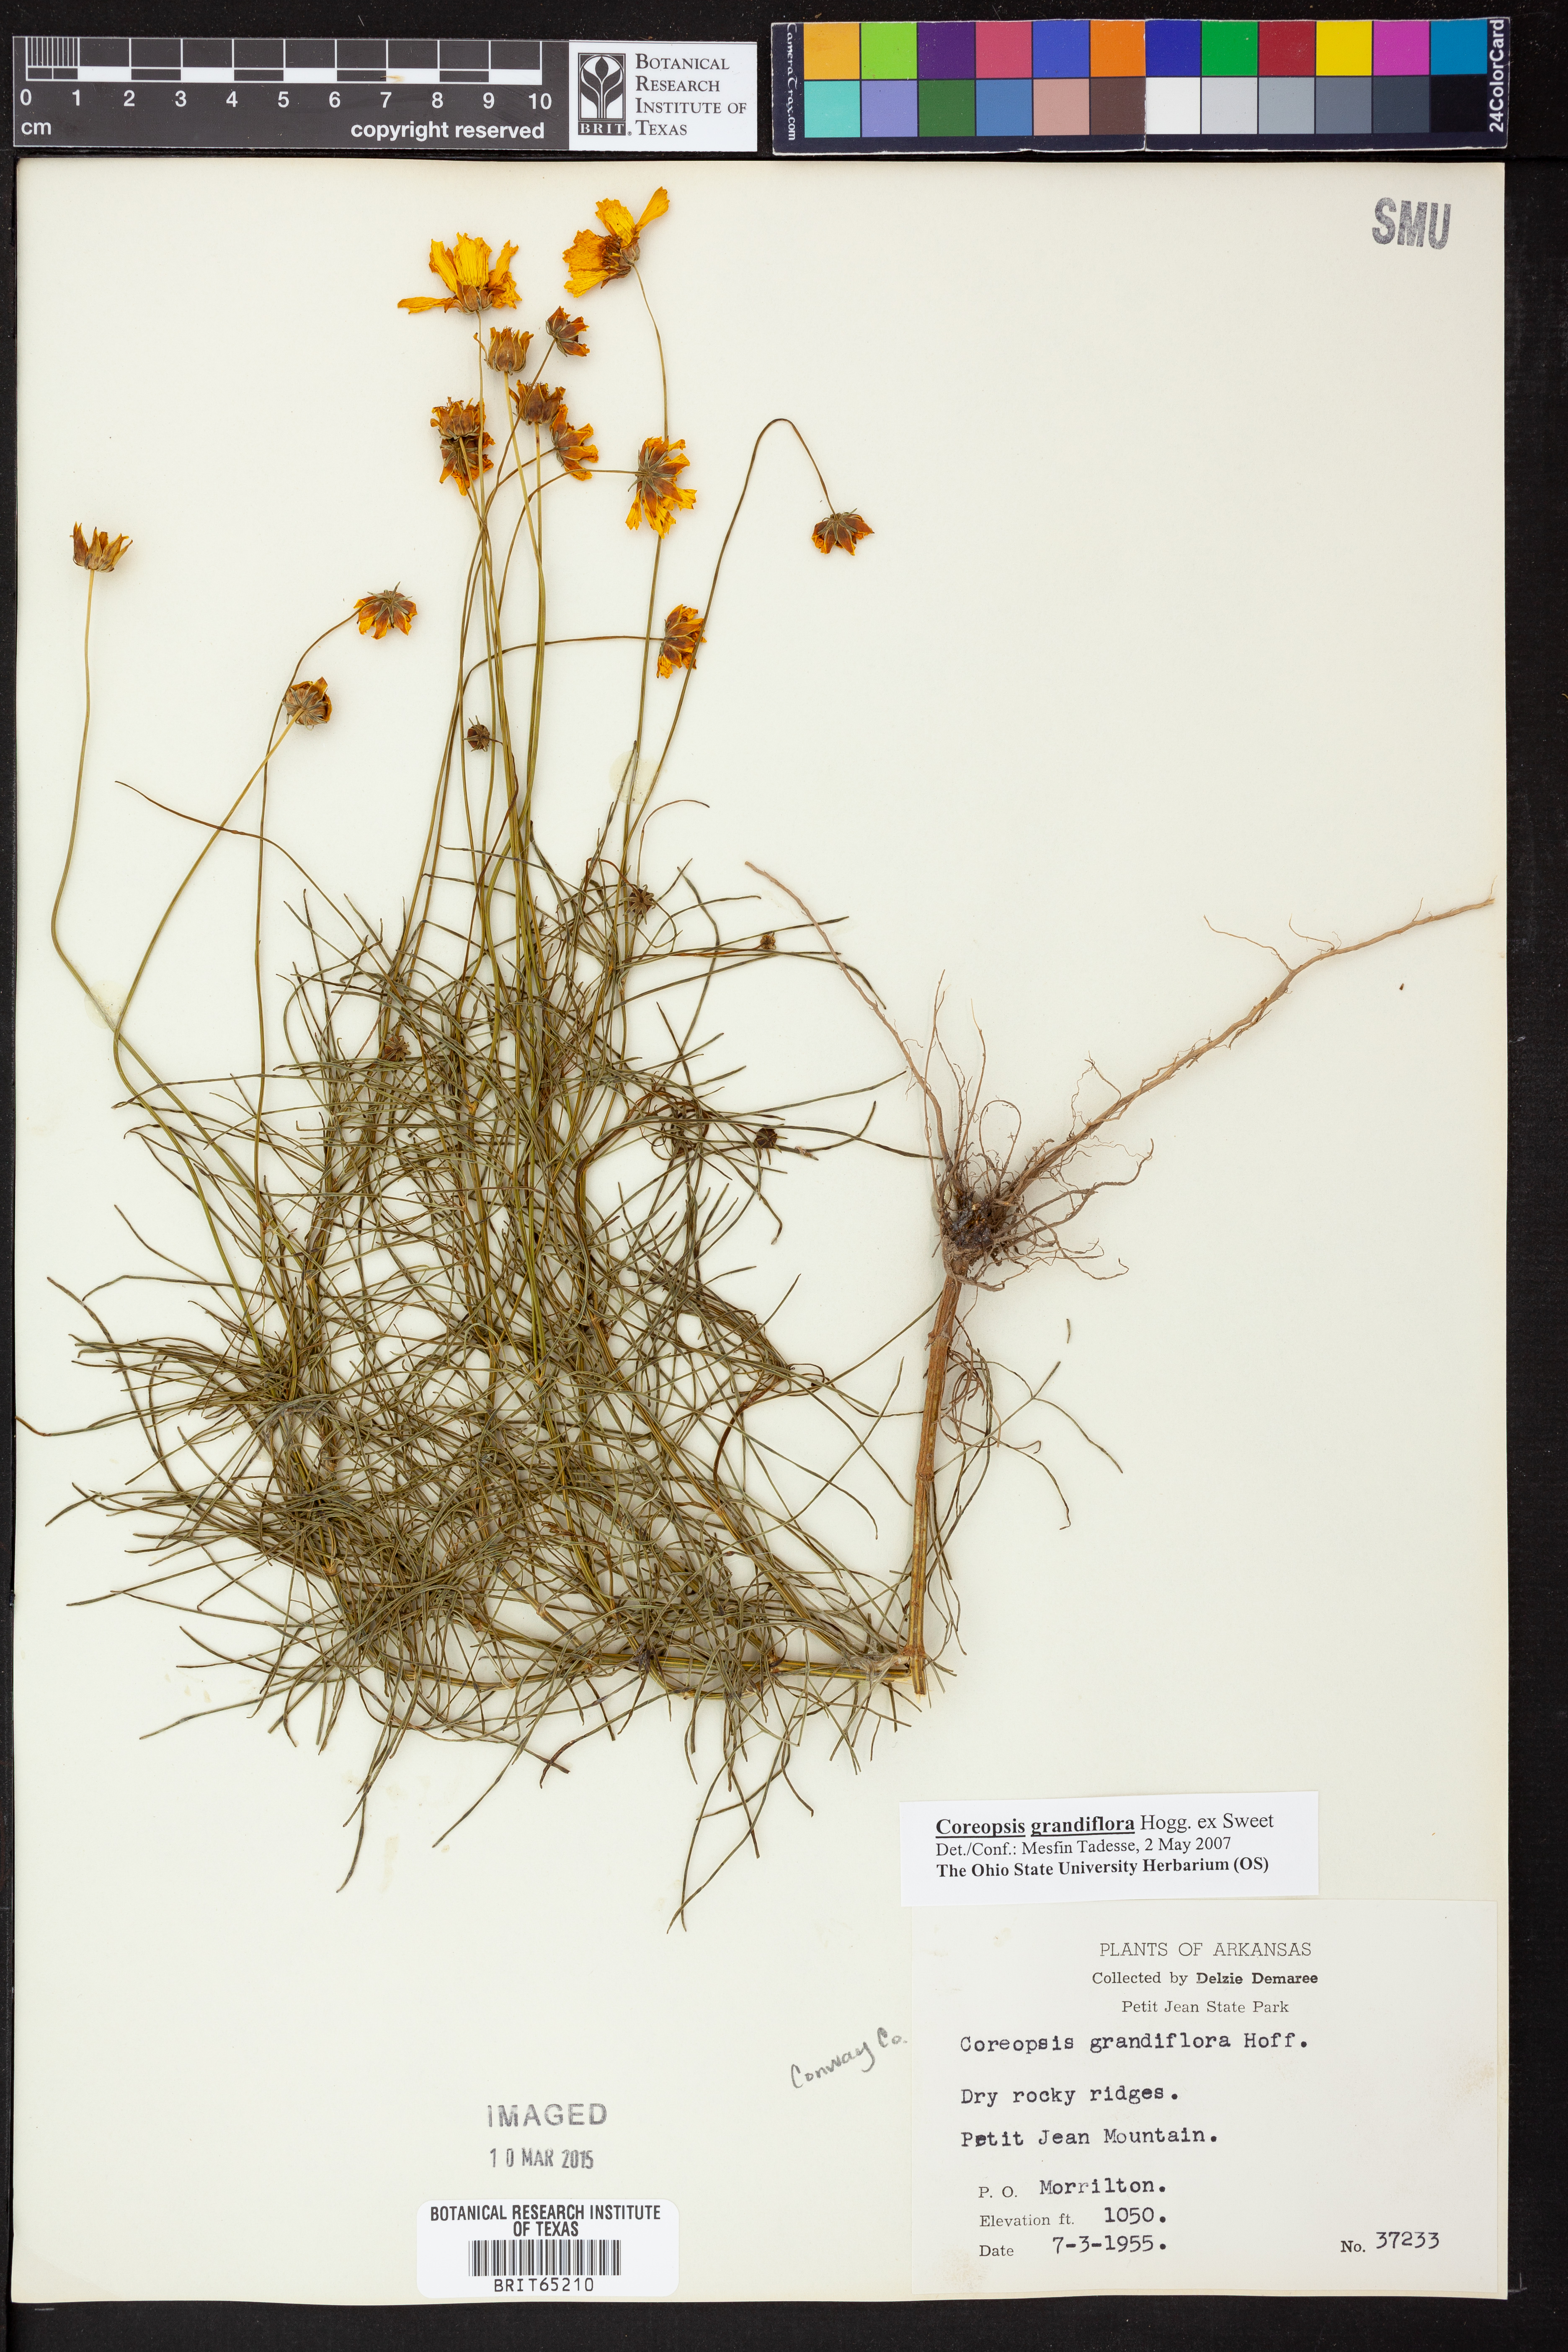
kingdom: Plantae
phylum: Tracheophyta
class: Magnoliopsida
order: Asterales
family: Asteraceae
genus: Coreopsis
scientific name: Coreopsis grandiflora
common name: Large-flowered tickseed
